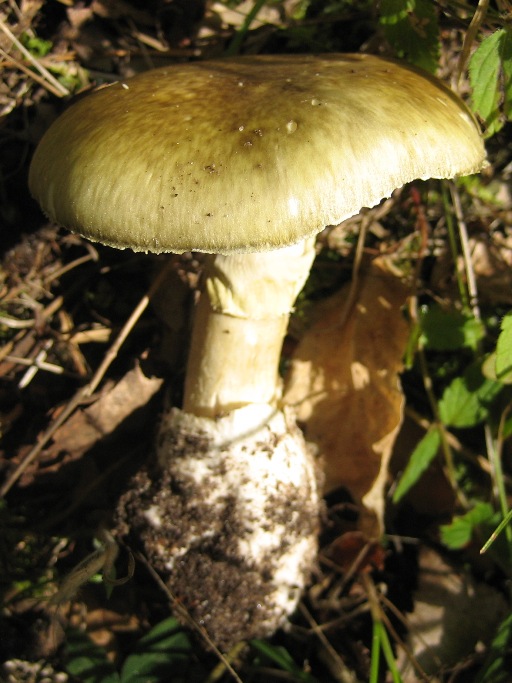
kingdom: Fungi
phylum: Basidiomycota
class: Agaricomycetes
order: Agaricales
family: Amanitaceae
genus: Amanita
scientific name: Amanita phalloides
